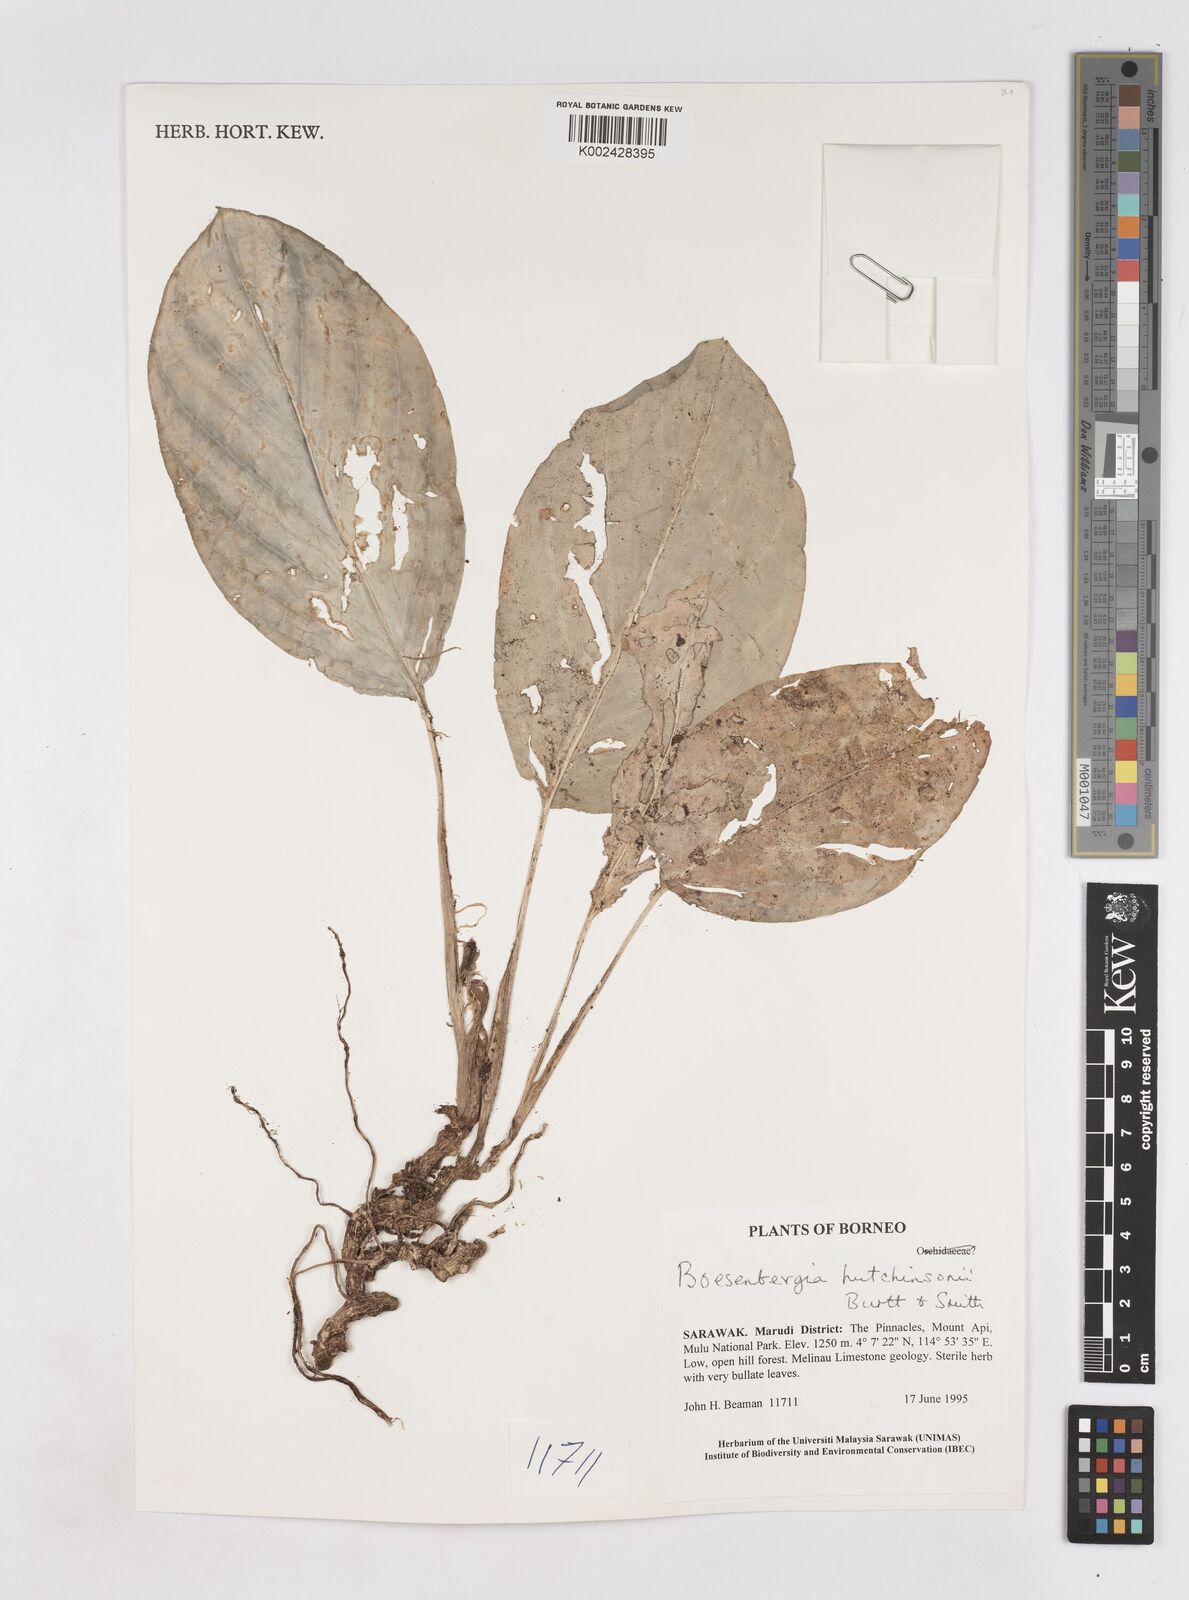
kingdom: Plantae
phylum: Tracheophyta
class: Liliopsida
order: Zingiberales
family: Zingiberaceae
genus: Boesenbergia
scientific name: Boesenbergia hutchinsonii
